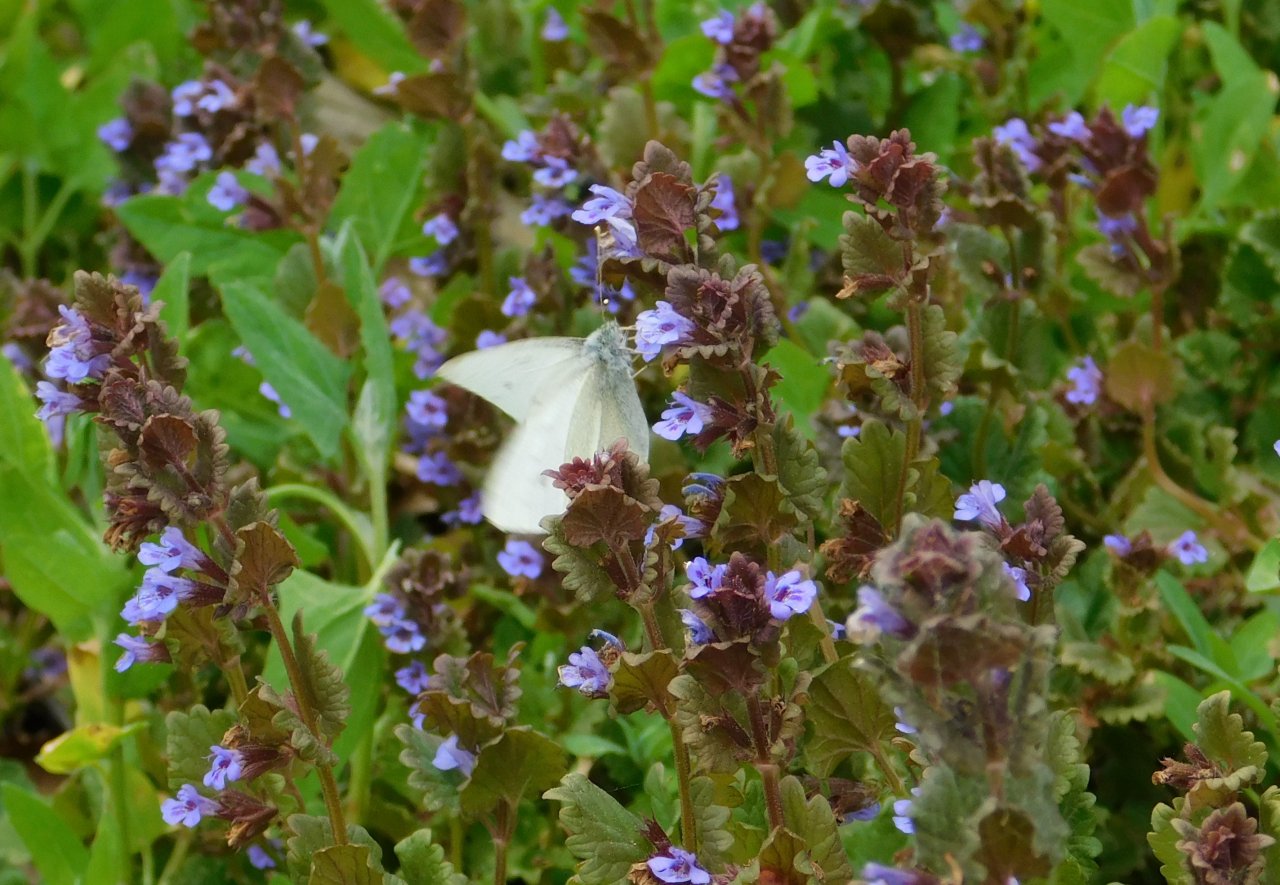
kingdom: Animalia
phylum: Arthropoda
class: Insecta
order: Lepidoptera
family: Pieridae
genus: Pieris
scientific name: Pieris rapae
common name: Cabbage White
